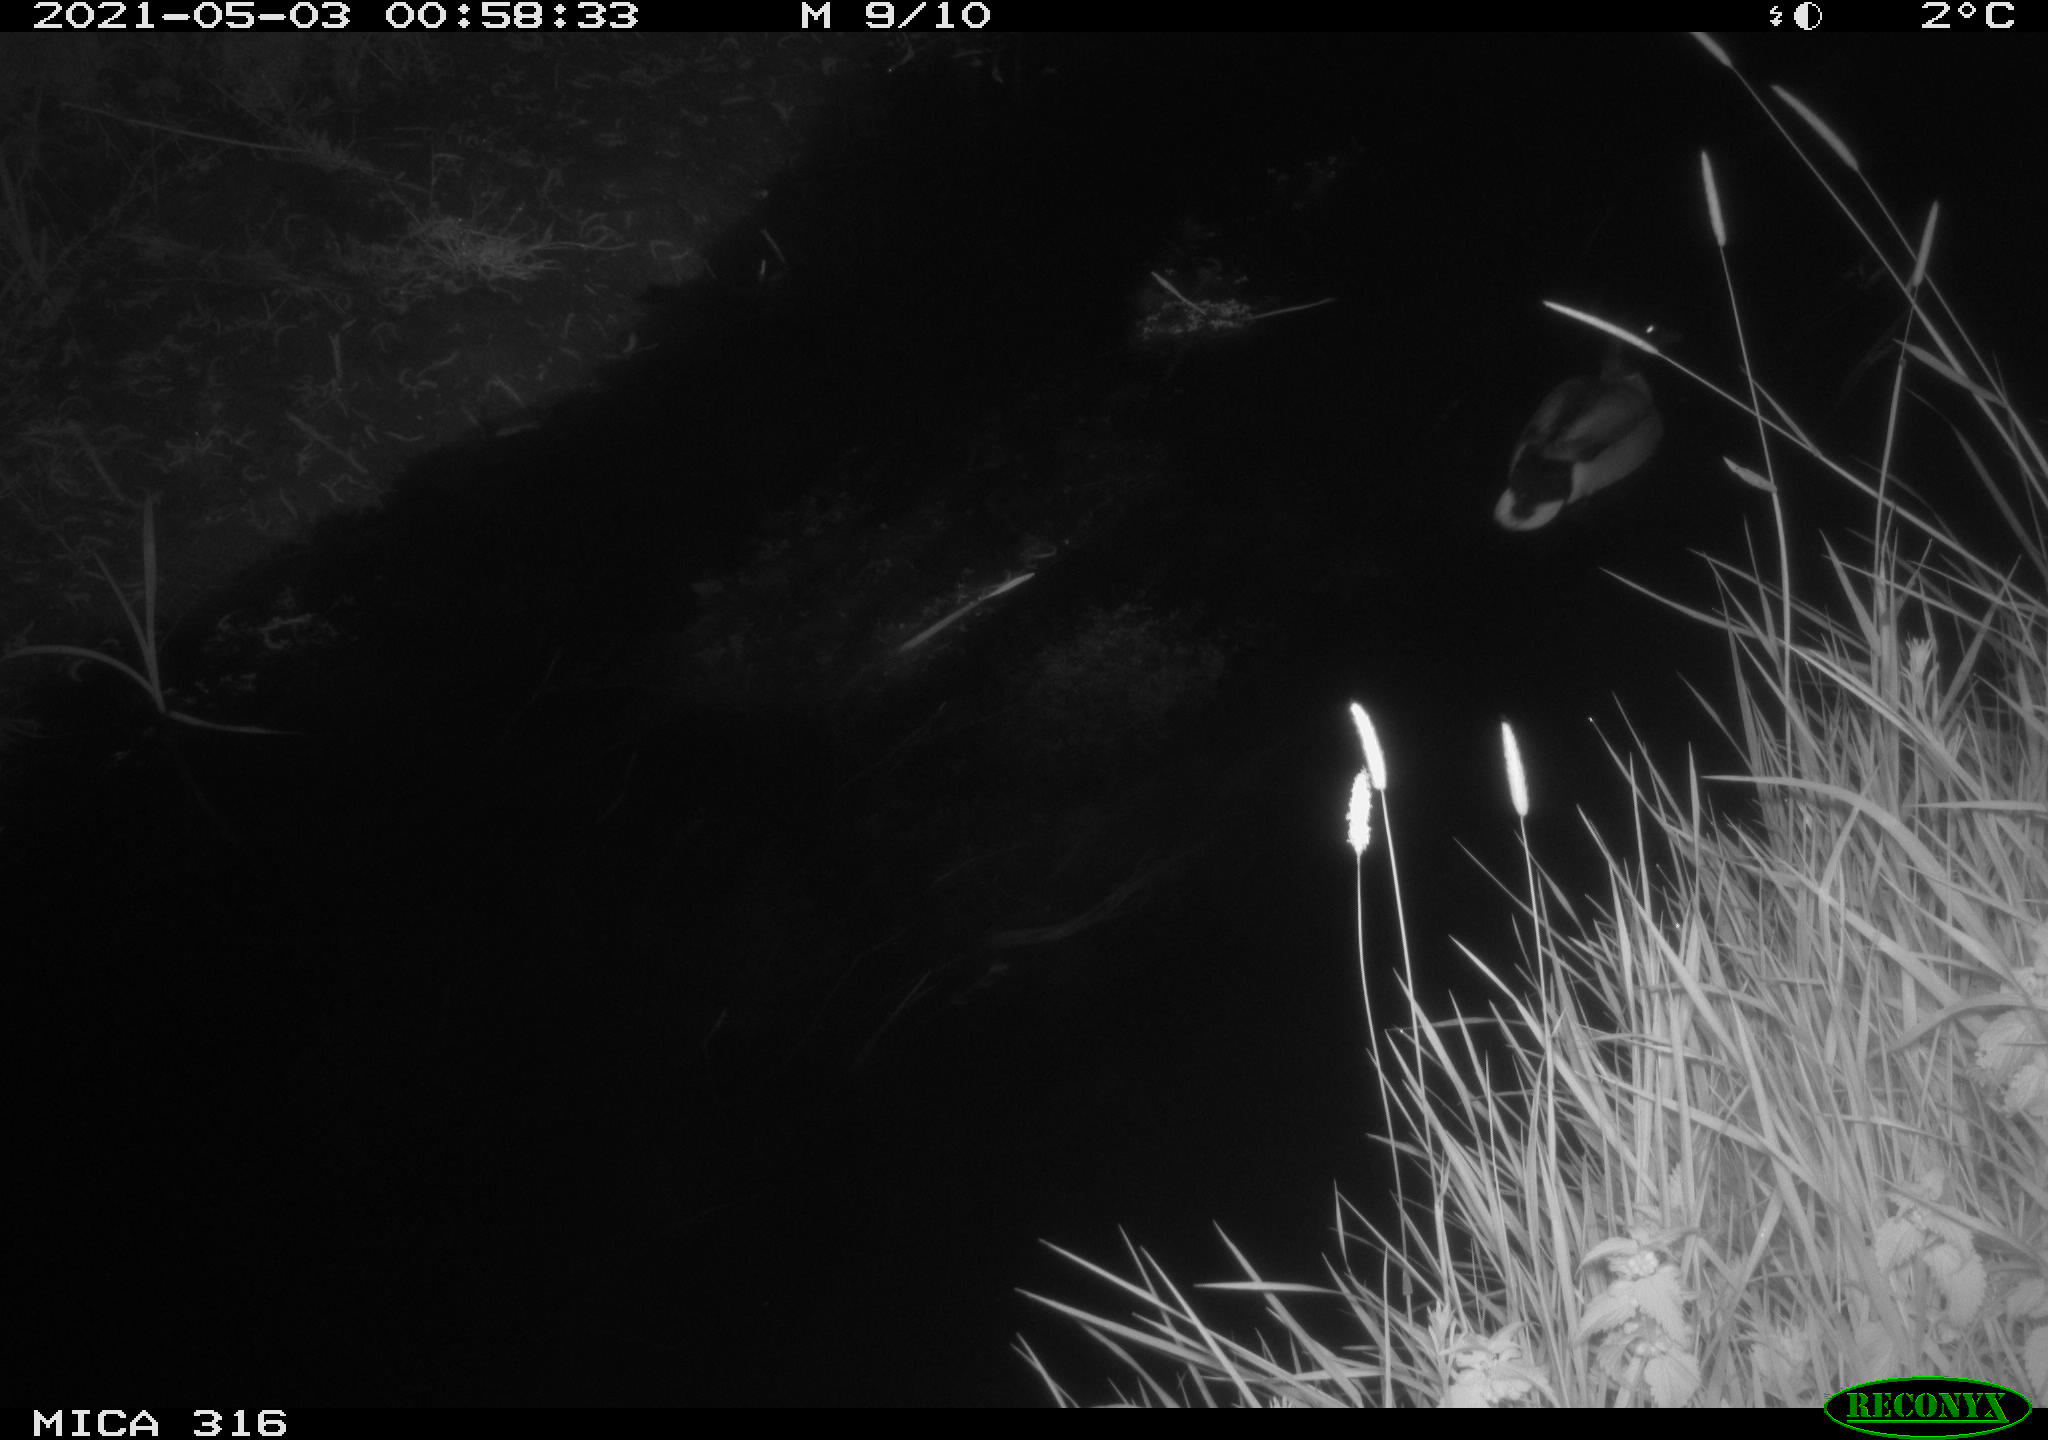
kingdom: Animalia
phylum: Chordata
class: Aves
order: Anseriformes
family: Anatidae
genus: Anas
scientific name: Anas platyrhynchos
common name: Mallard
